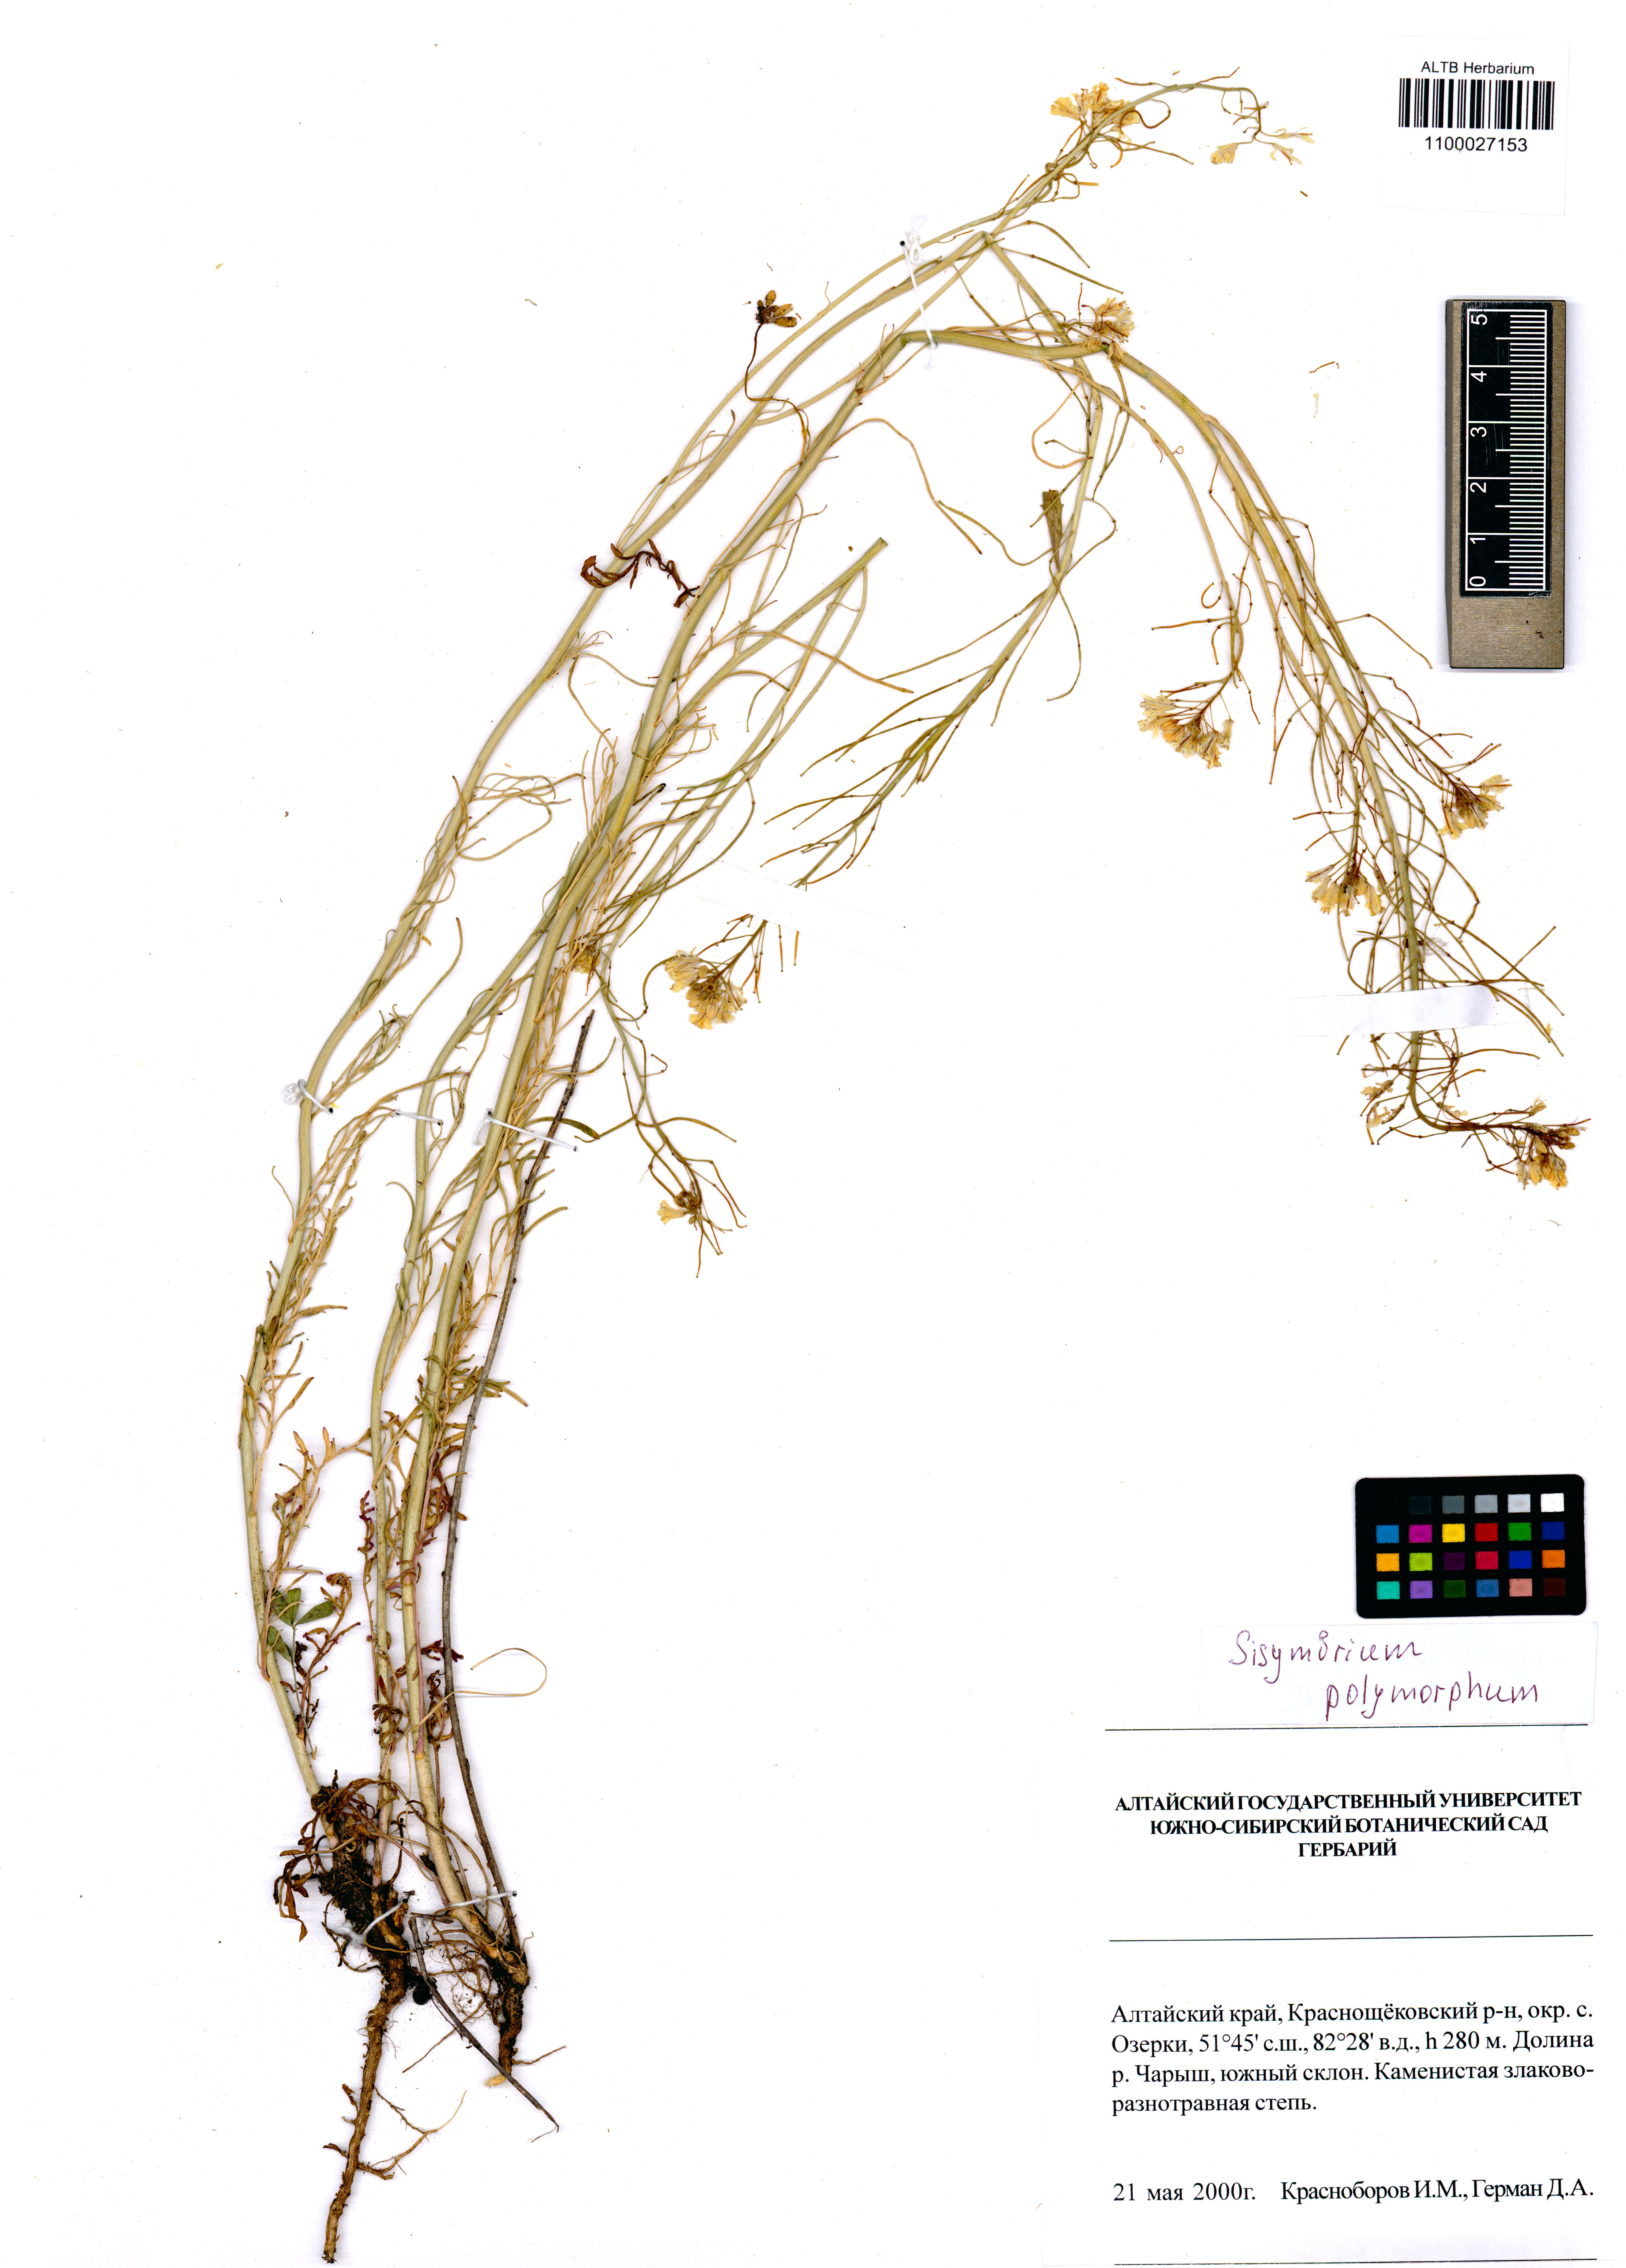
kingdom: Plantae
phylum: Tracheophyta
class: Magnoliopsida
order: Brassicales
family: Brassicaceae
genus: Sisymbrium
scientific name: Sisymbrium polymorphum
